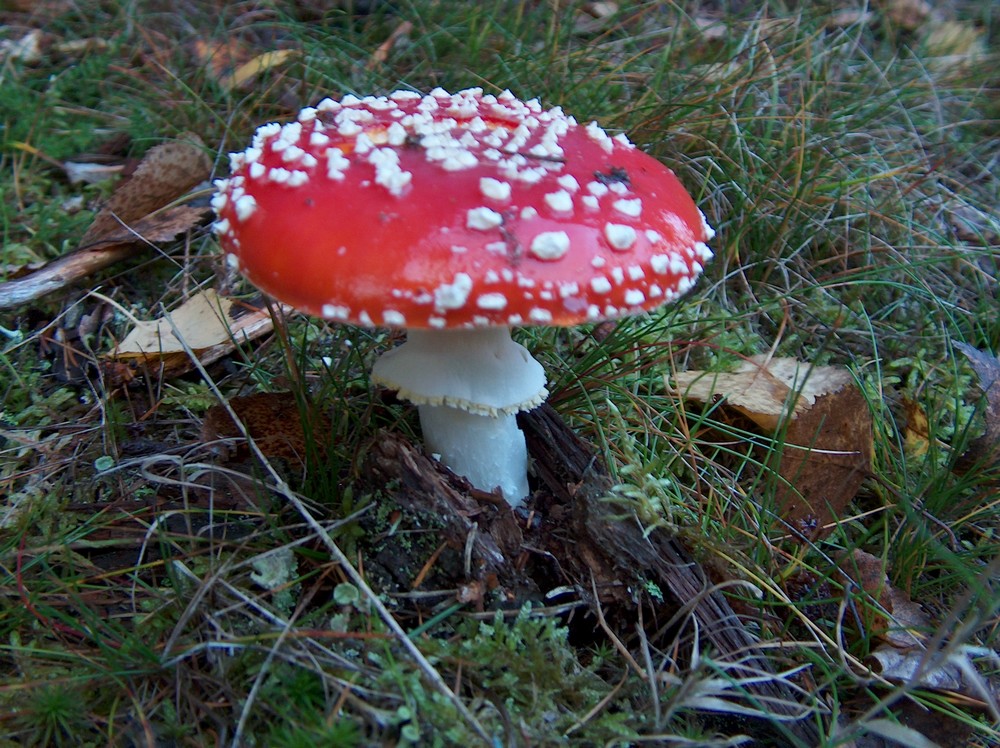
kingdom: Fungi
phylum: Basidiomycota
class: Agaricomycetes
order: Agaricales
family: Amanitaceae
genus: Amanita
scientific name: Amanita muscaria
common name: rød fluesvamp
